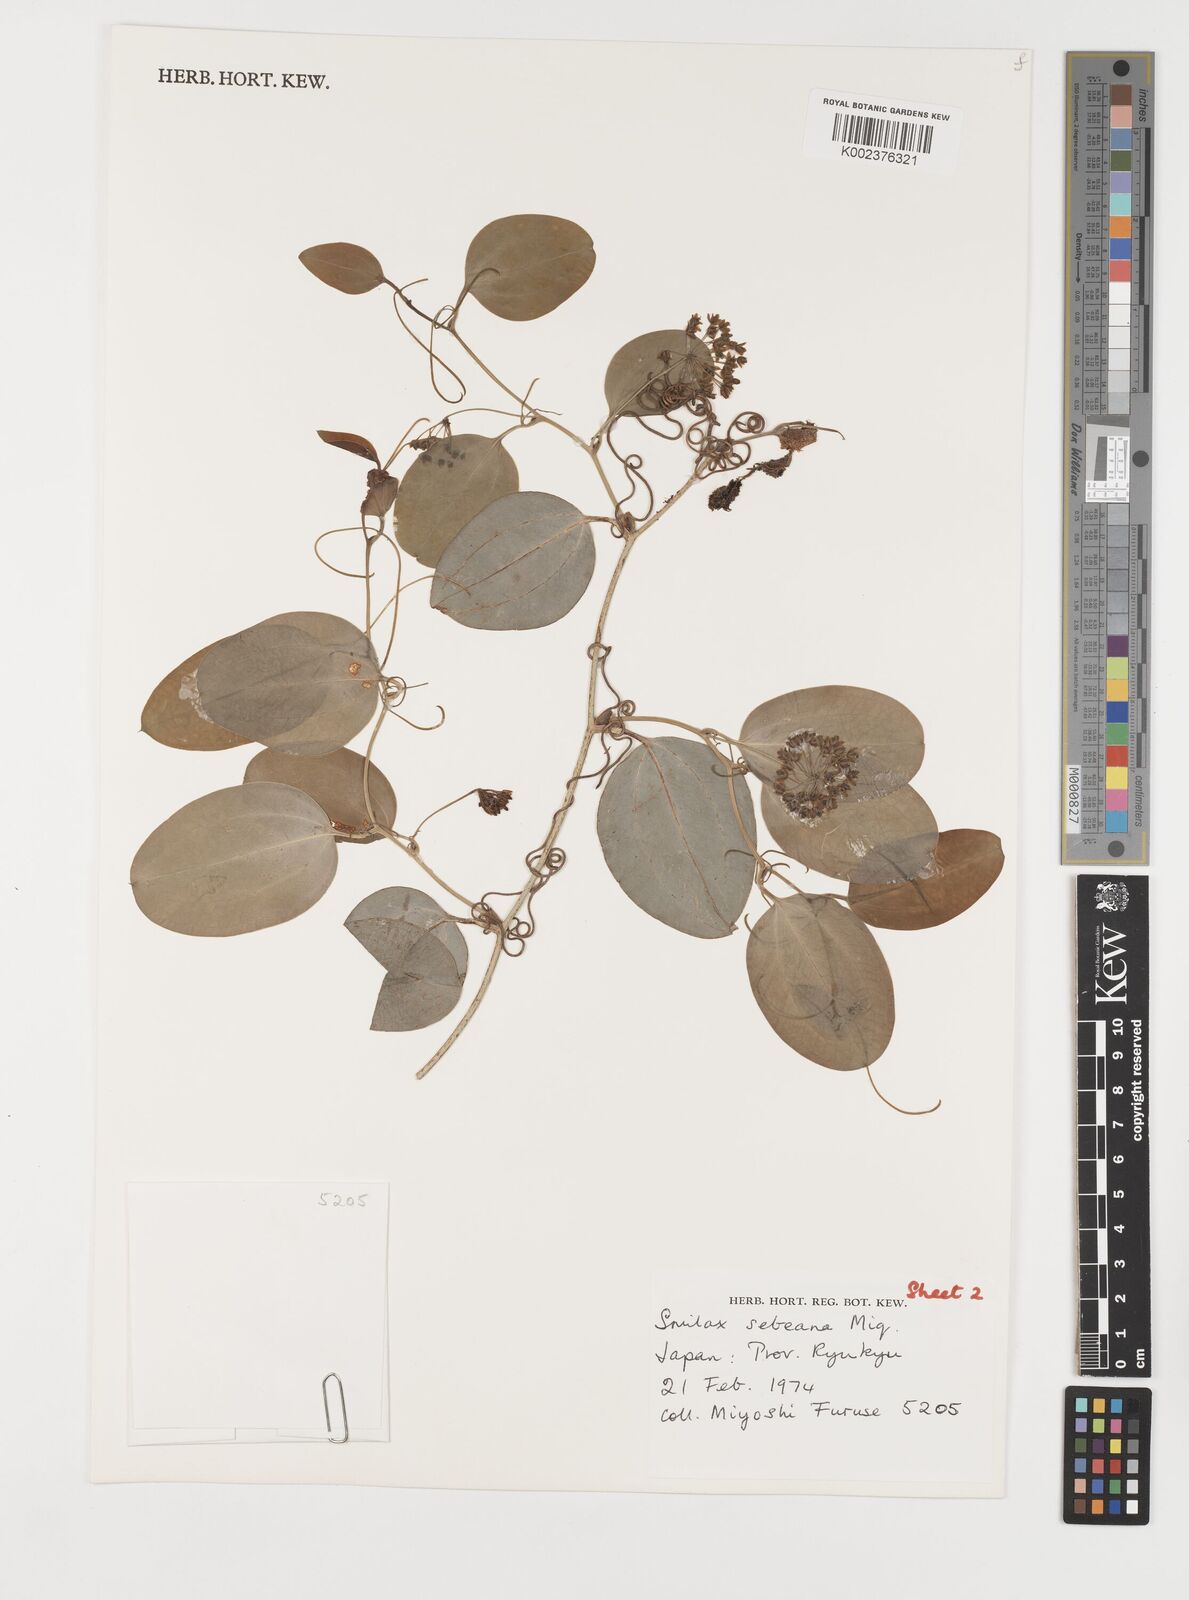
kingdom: Plantae
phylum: Tracheophyta
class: Liliopsida
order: Liliales
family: Smilacaceae
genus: Smilax
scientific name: Smilax sebeana
